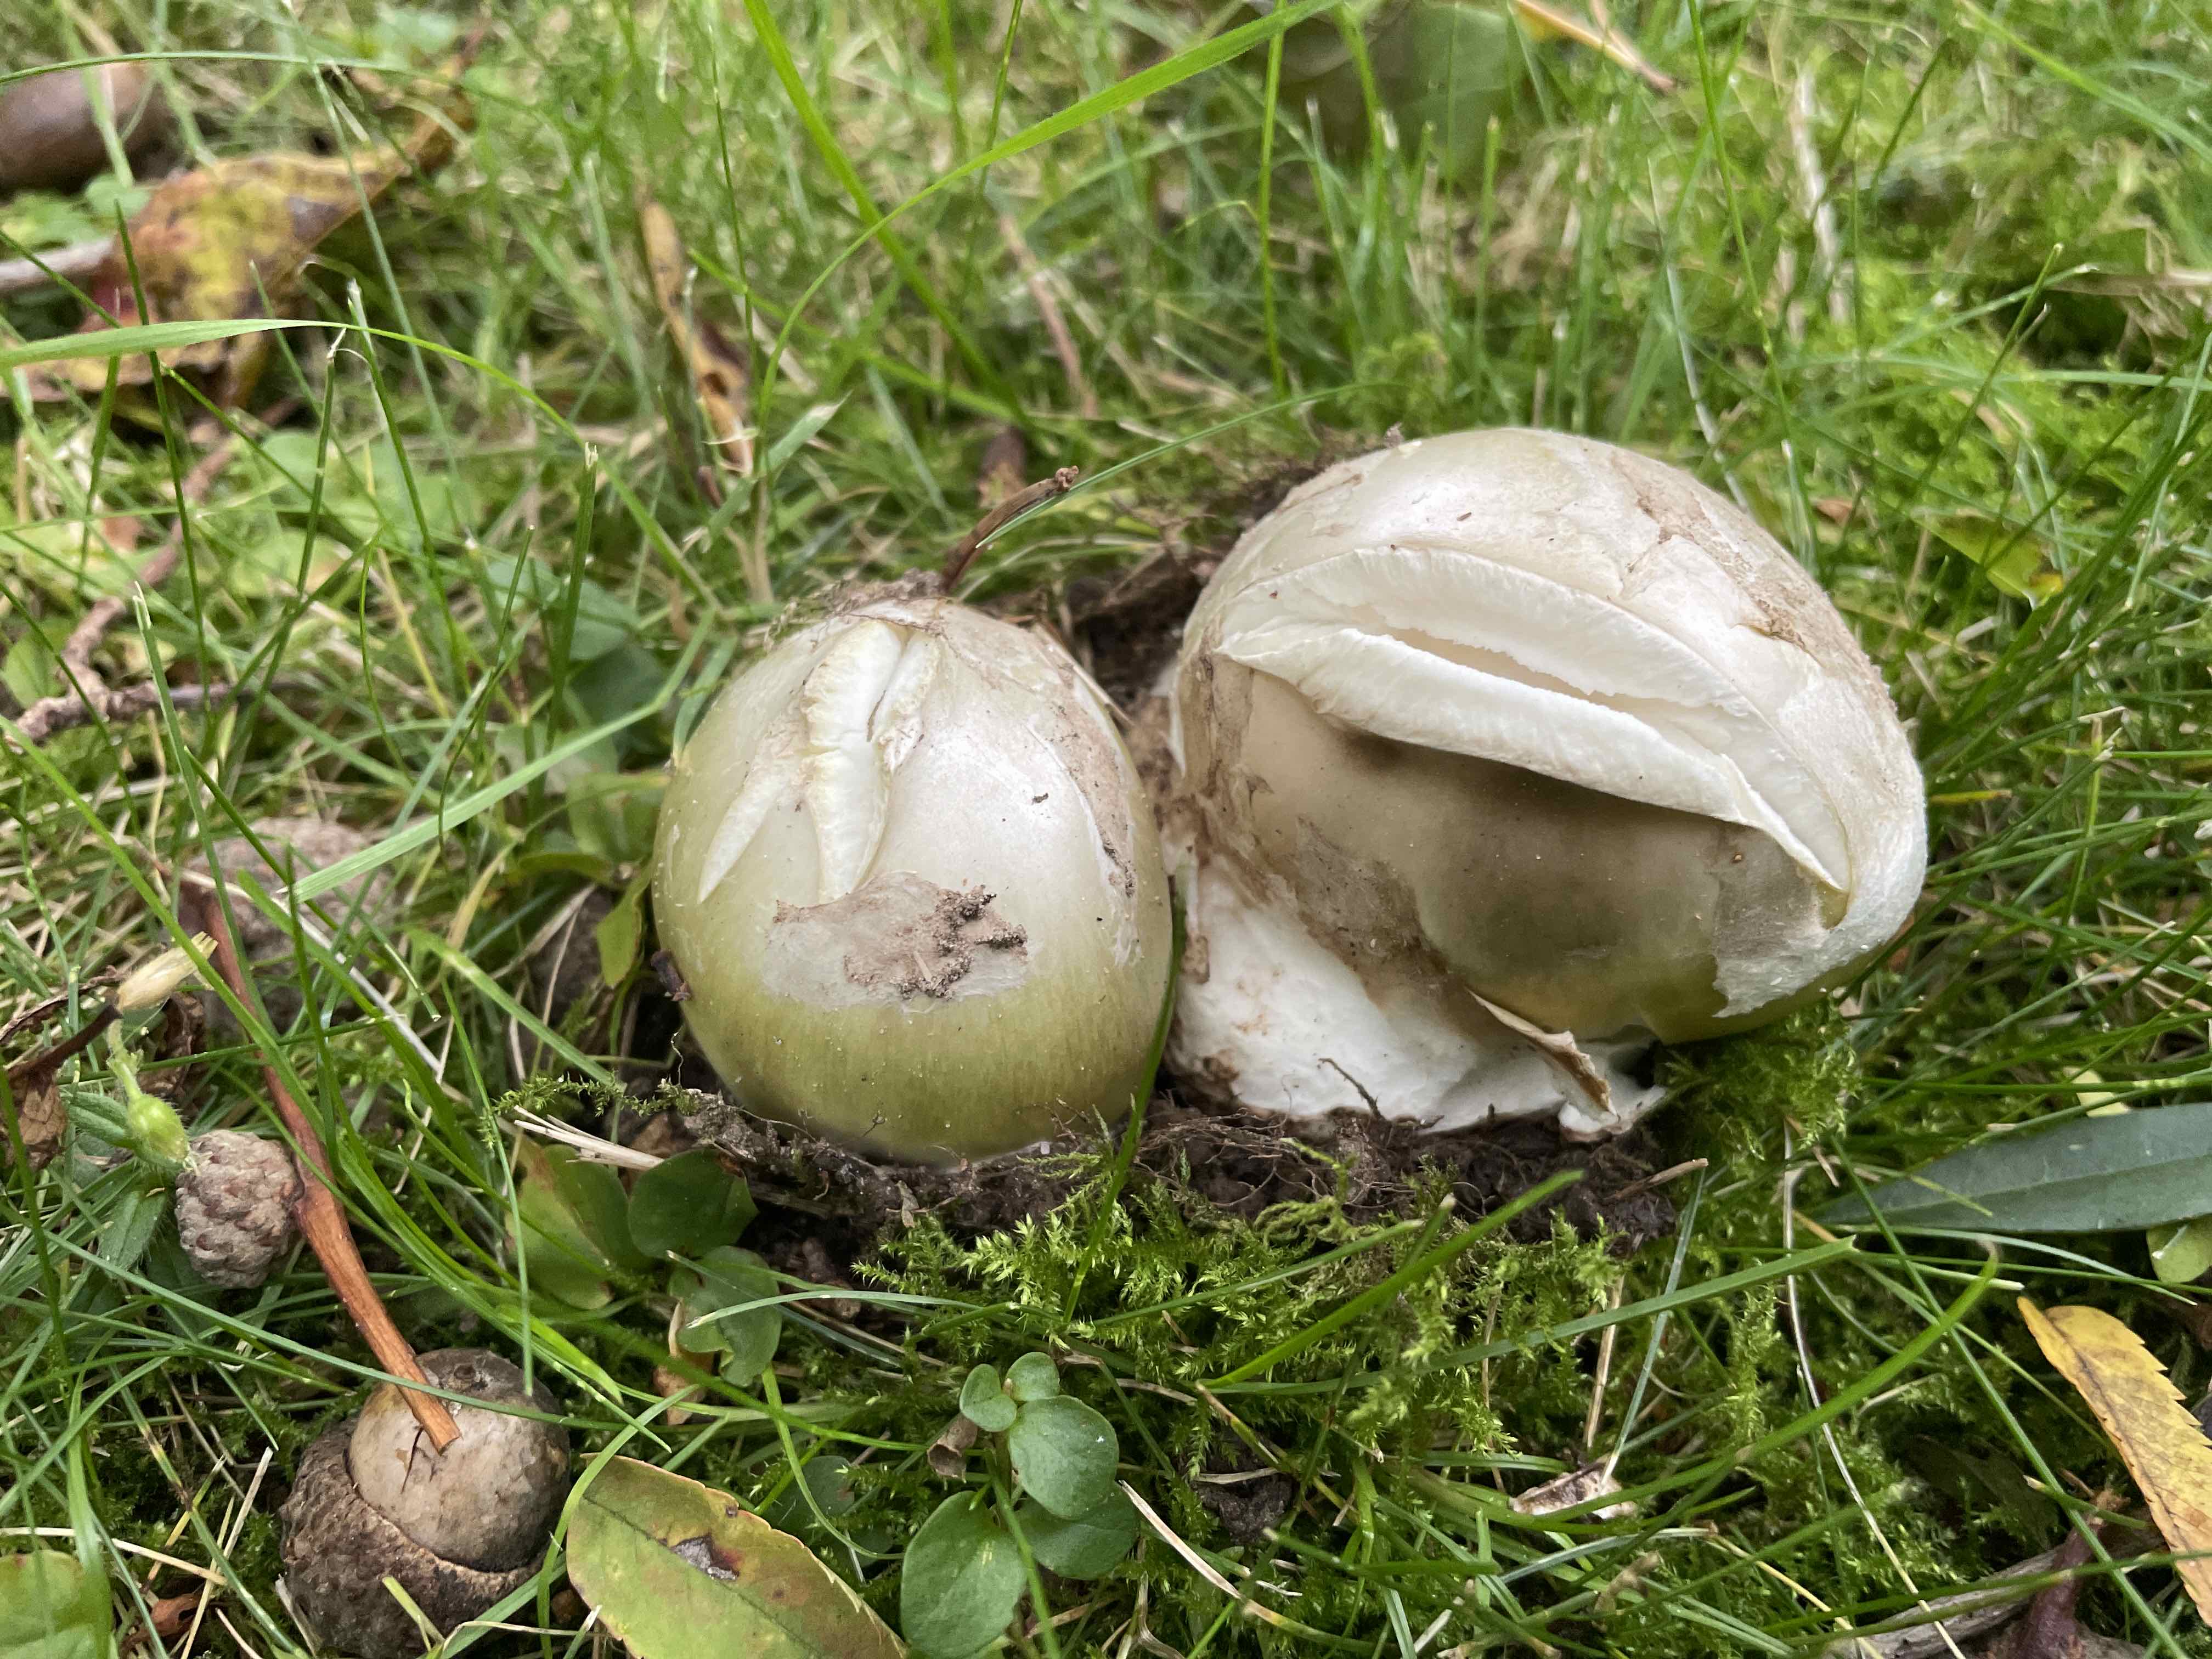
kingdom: Fungi
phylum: Basidiomycota
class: Agaricomycetes
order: Agaricales
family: Amanitaceae
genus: Amanita
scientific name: Amanita phalloides
